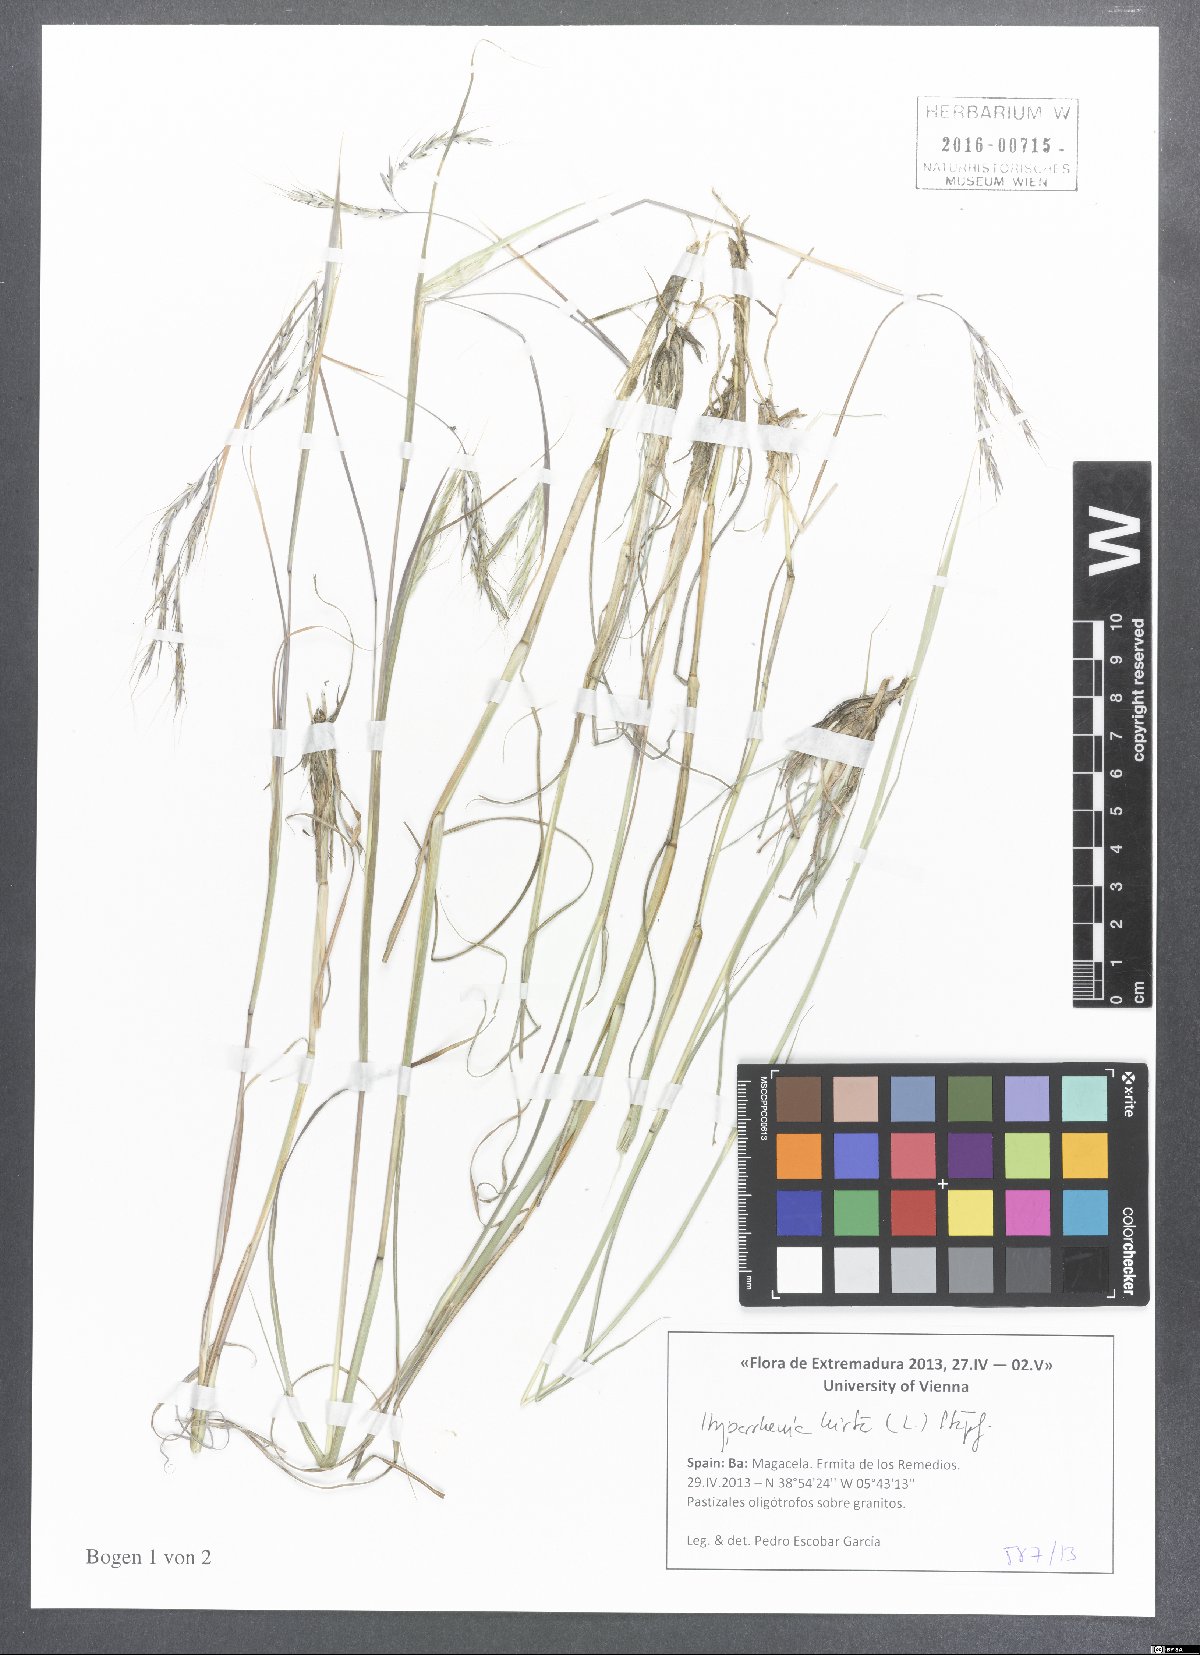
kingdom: Plantae
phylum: Tracheophyta
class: Liliopsida
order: Poales
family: Poaceae
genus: Hyparrhenia
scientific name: Hyparrhenia hirta
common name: Thatching grass
